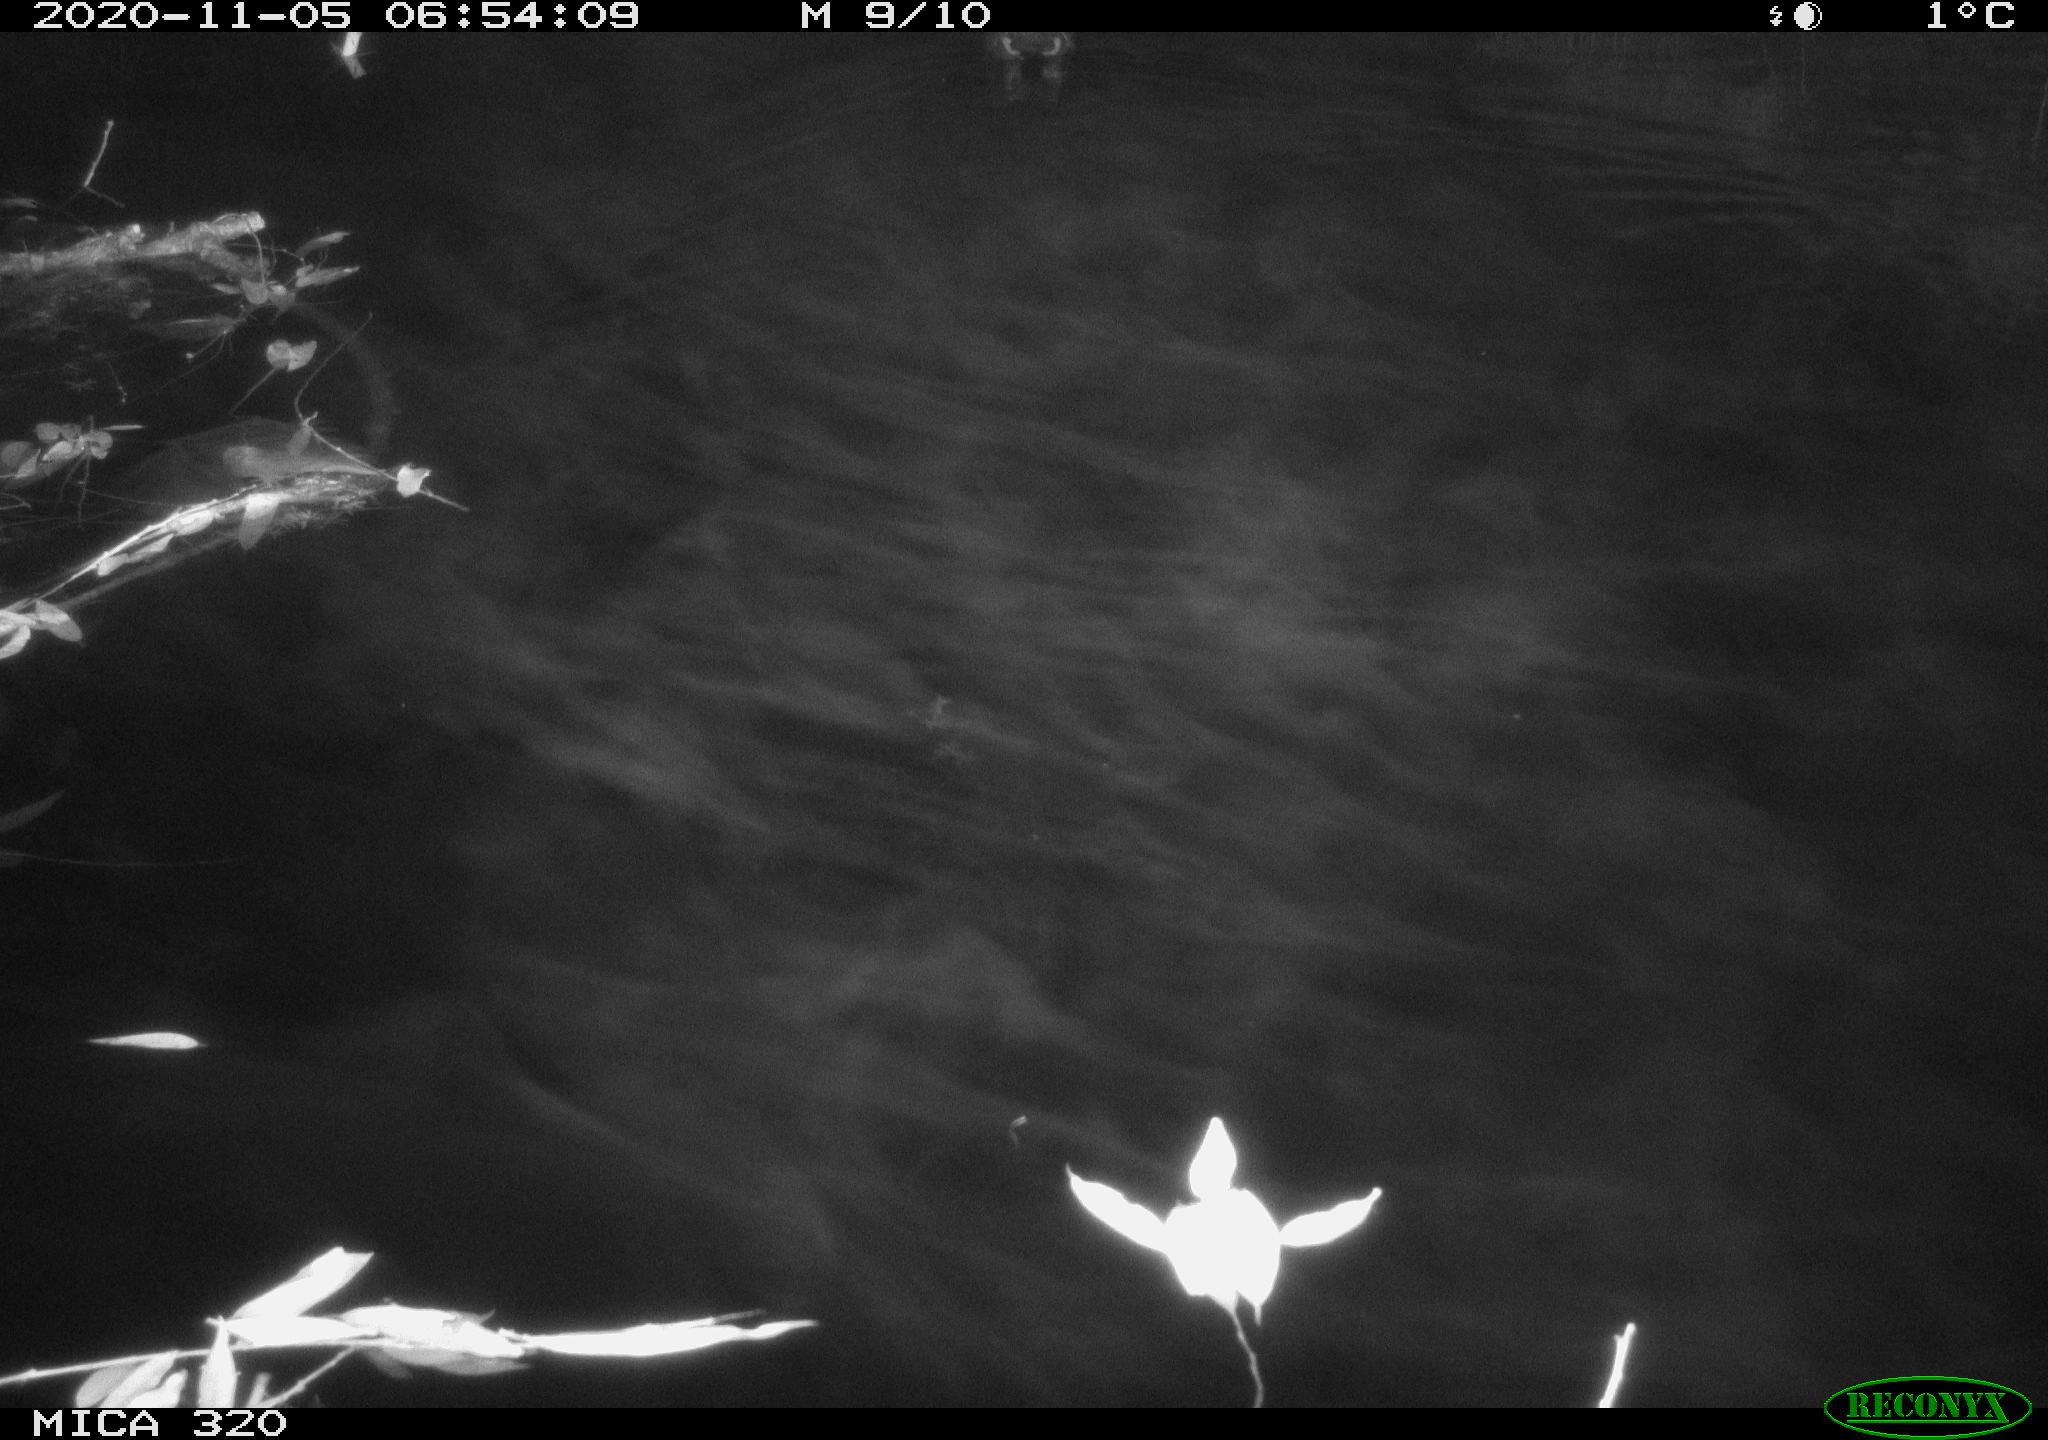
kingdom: Animalia
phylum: Chordata
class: Aves
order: Gruiformes
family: Rallidae
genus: Gallinula
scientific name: Gallinula chloropus
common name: Common moorhen
